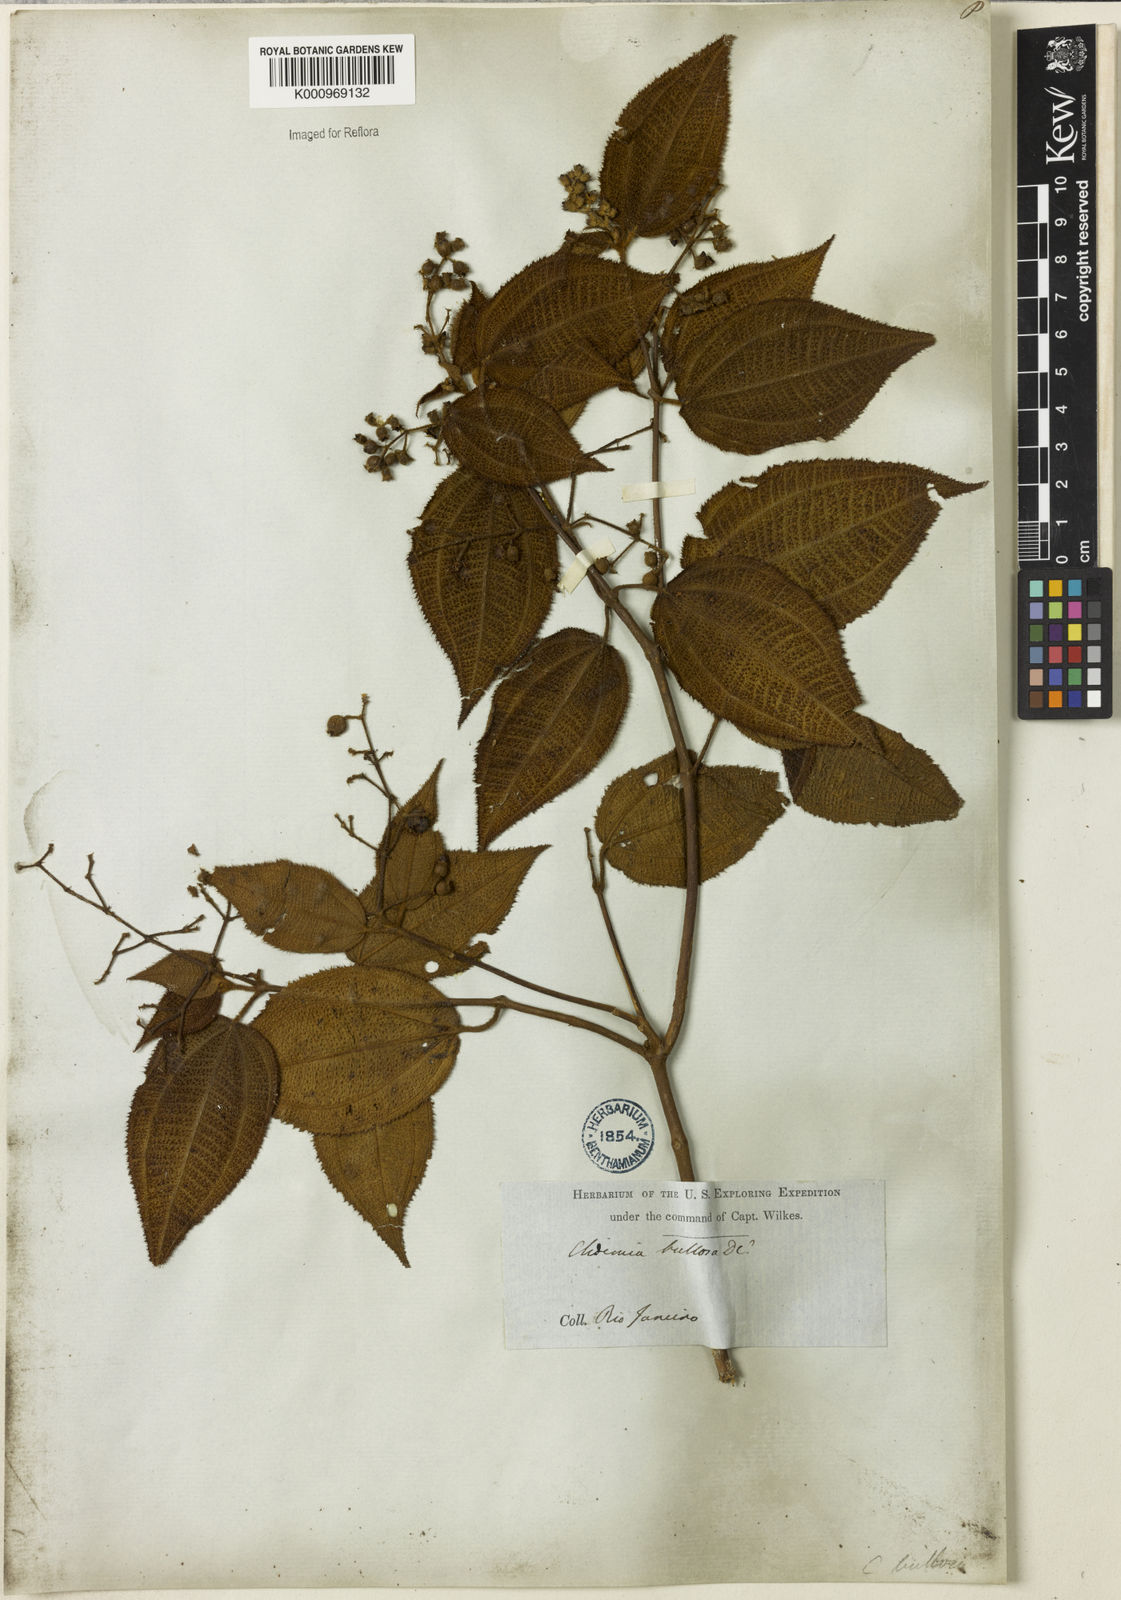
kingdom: Plantae
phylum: Tracheophyta
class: Magnoliopsida
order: Myrtales
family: Melastomataceae
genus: Miconia
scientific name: Miconia biserrata
